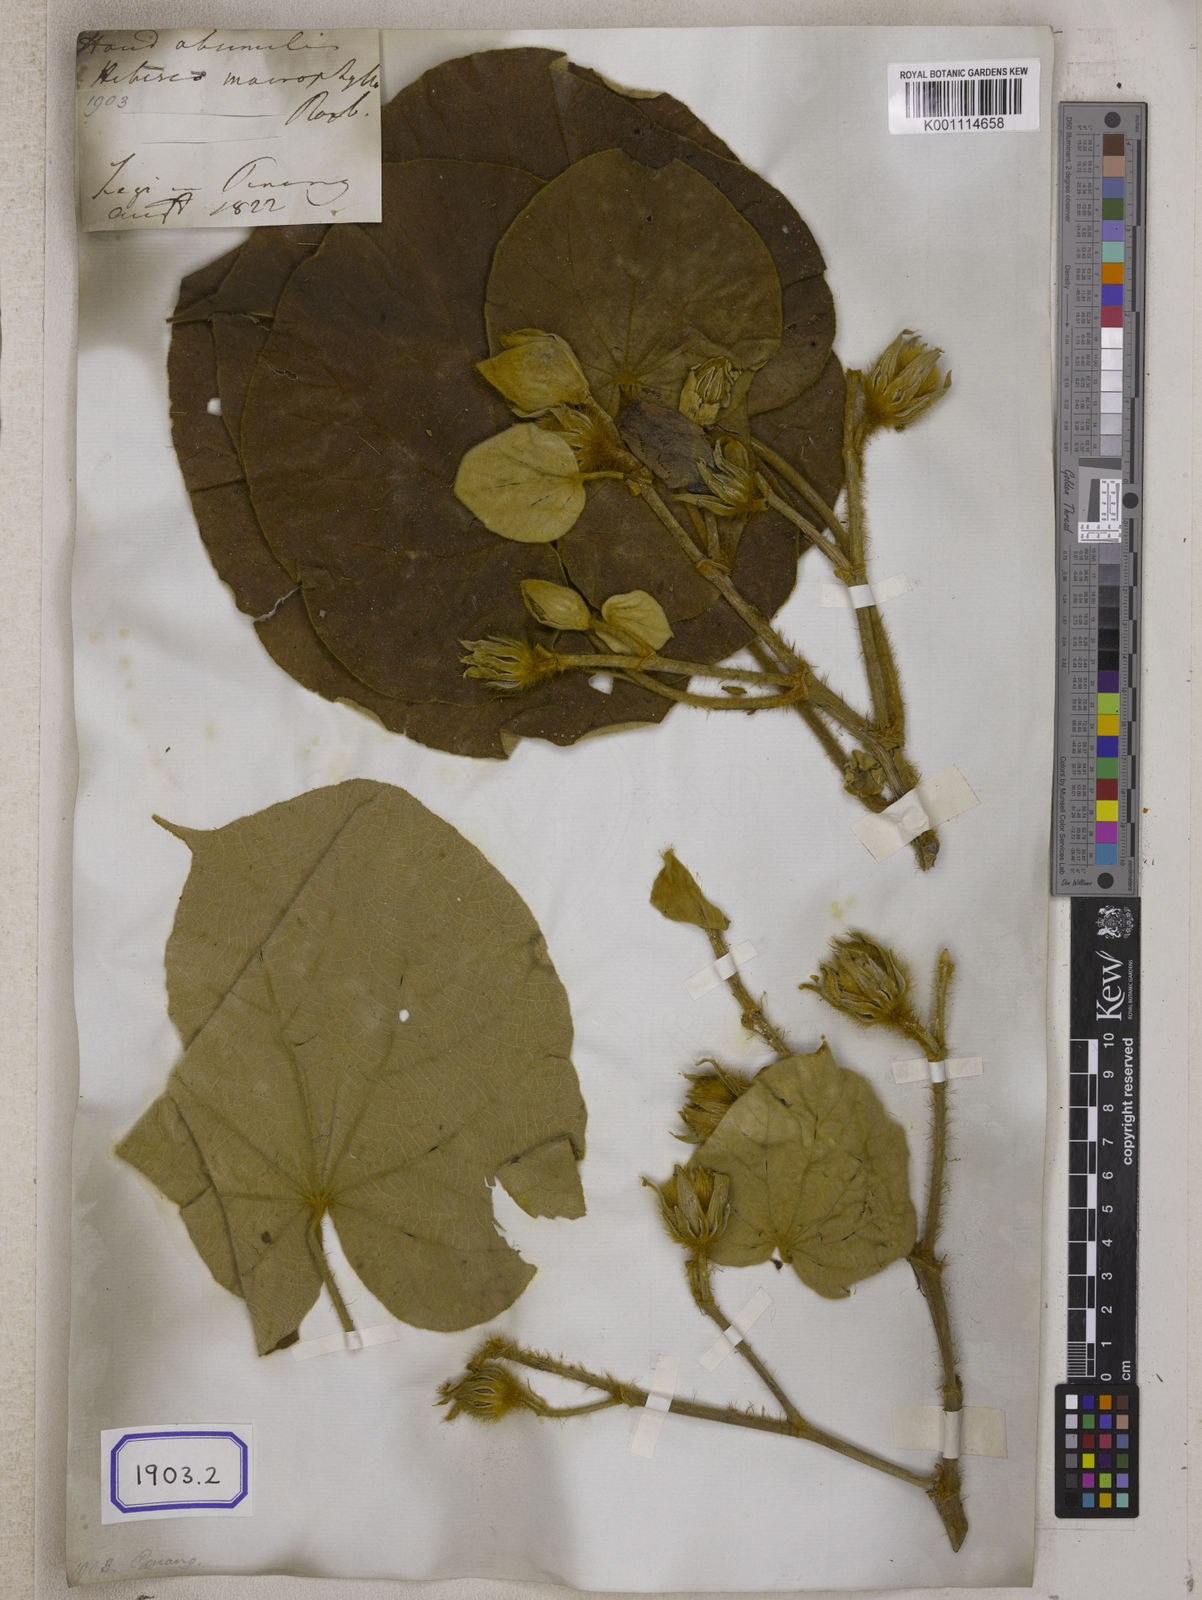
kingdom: Plantae
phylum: Tracheophyta
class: Magnoliopsida
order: Malvales
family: Malvaceae
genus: Hibiscus
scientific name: Hibiscus
